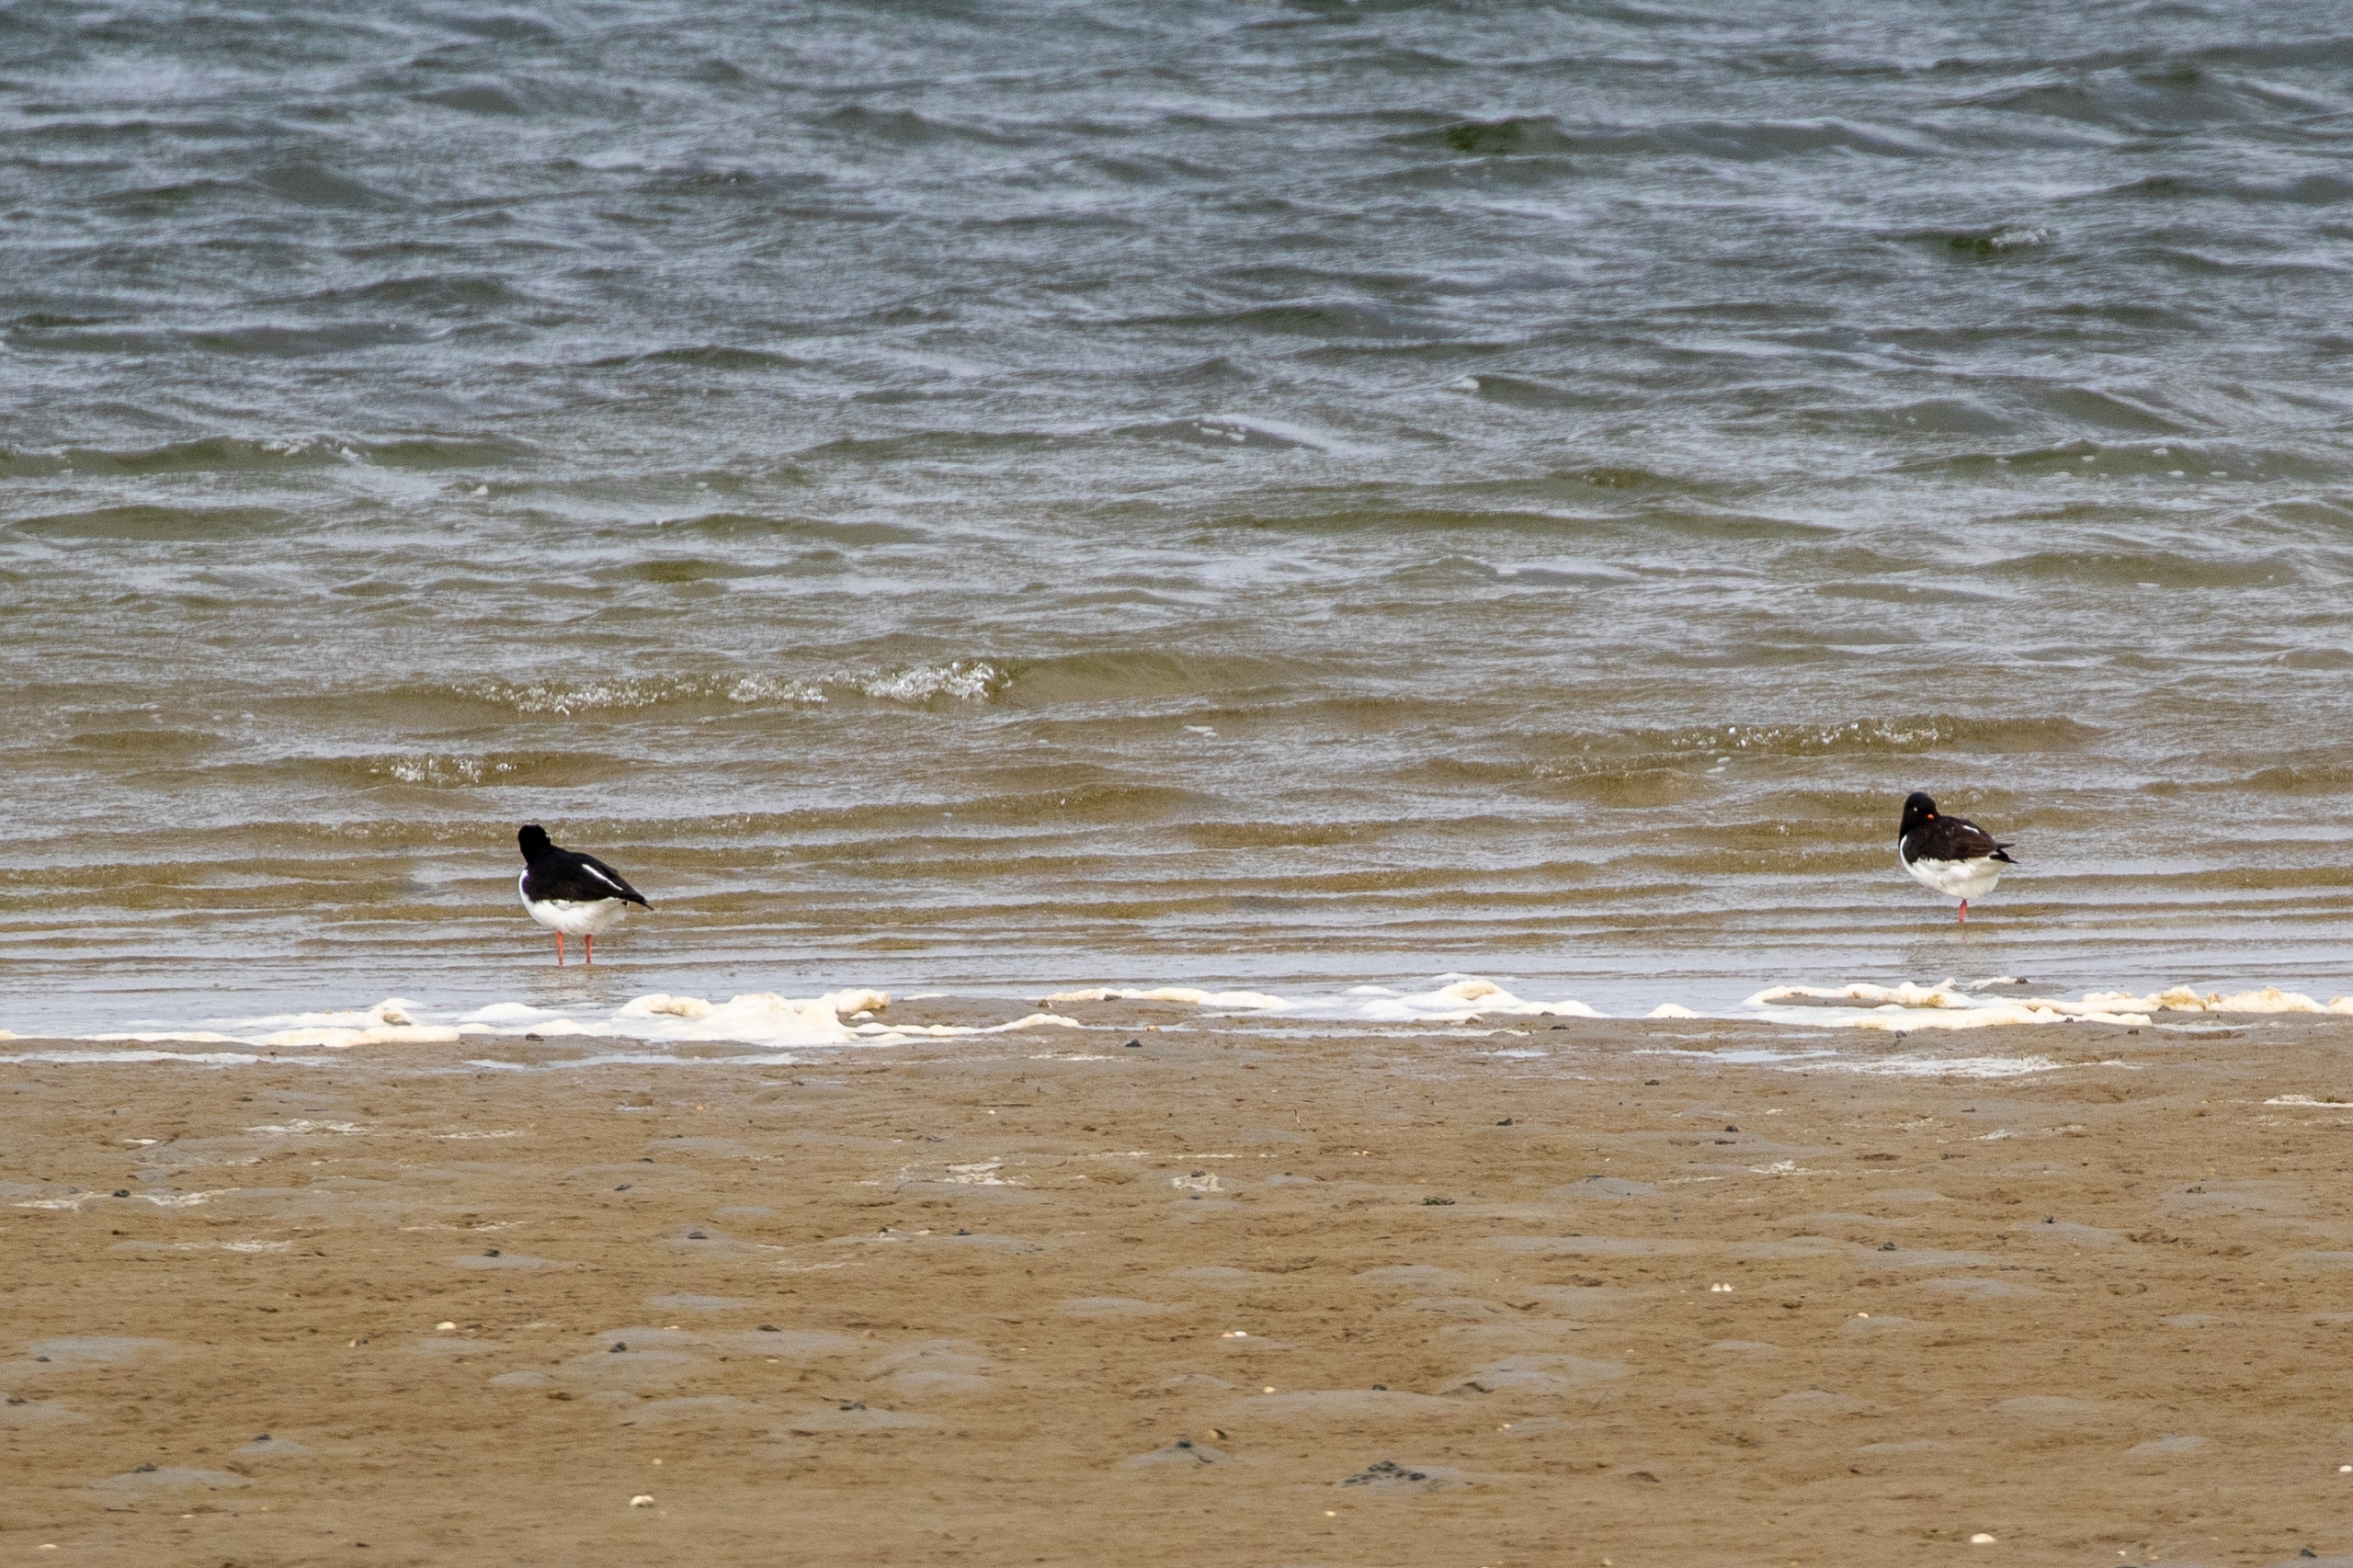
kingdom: Animalia
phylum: Chordata
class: Aves
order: Charadriiformes
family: Haematopodidae
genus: Haematopus
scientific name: Haematopus ostralegus
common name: Strandskade
